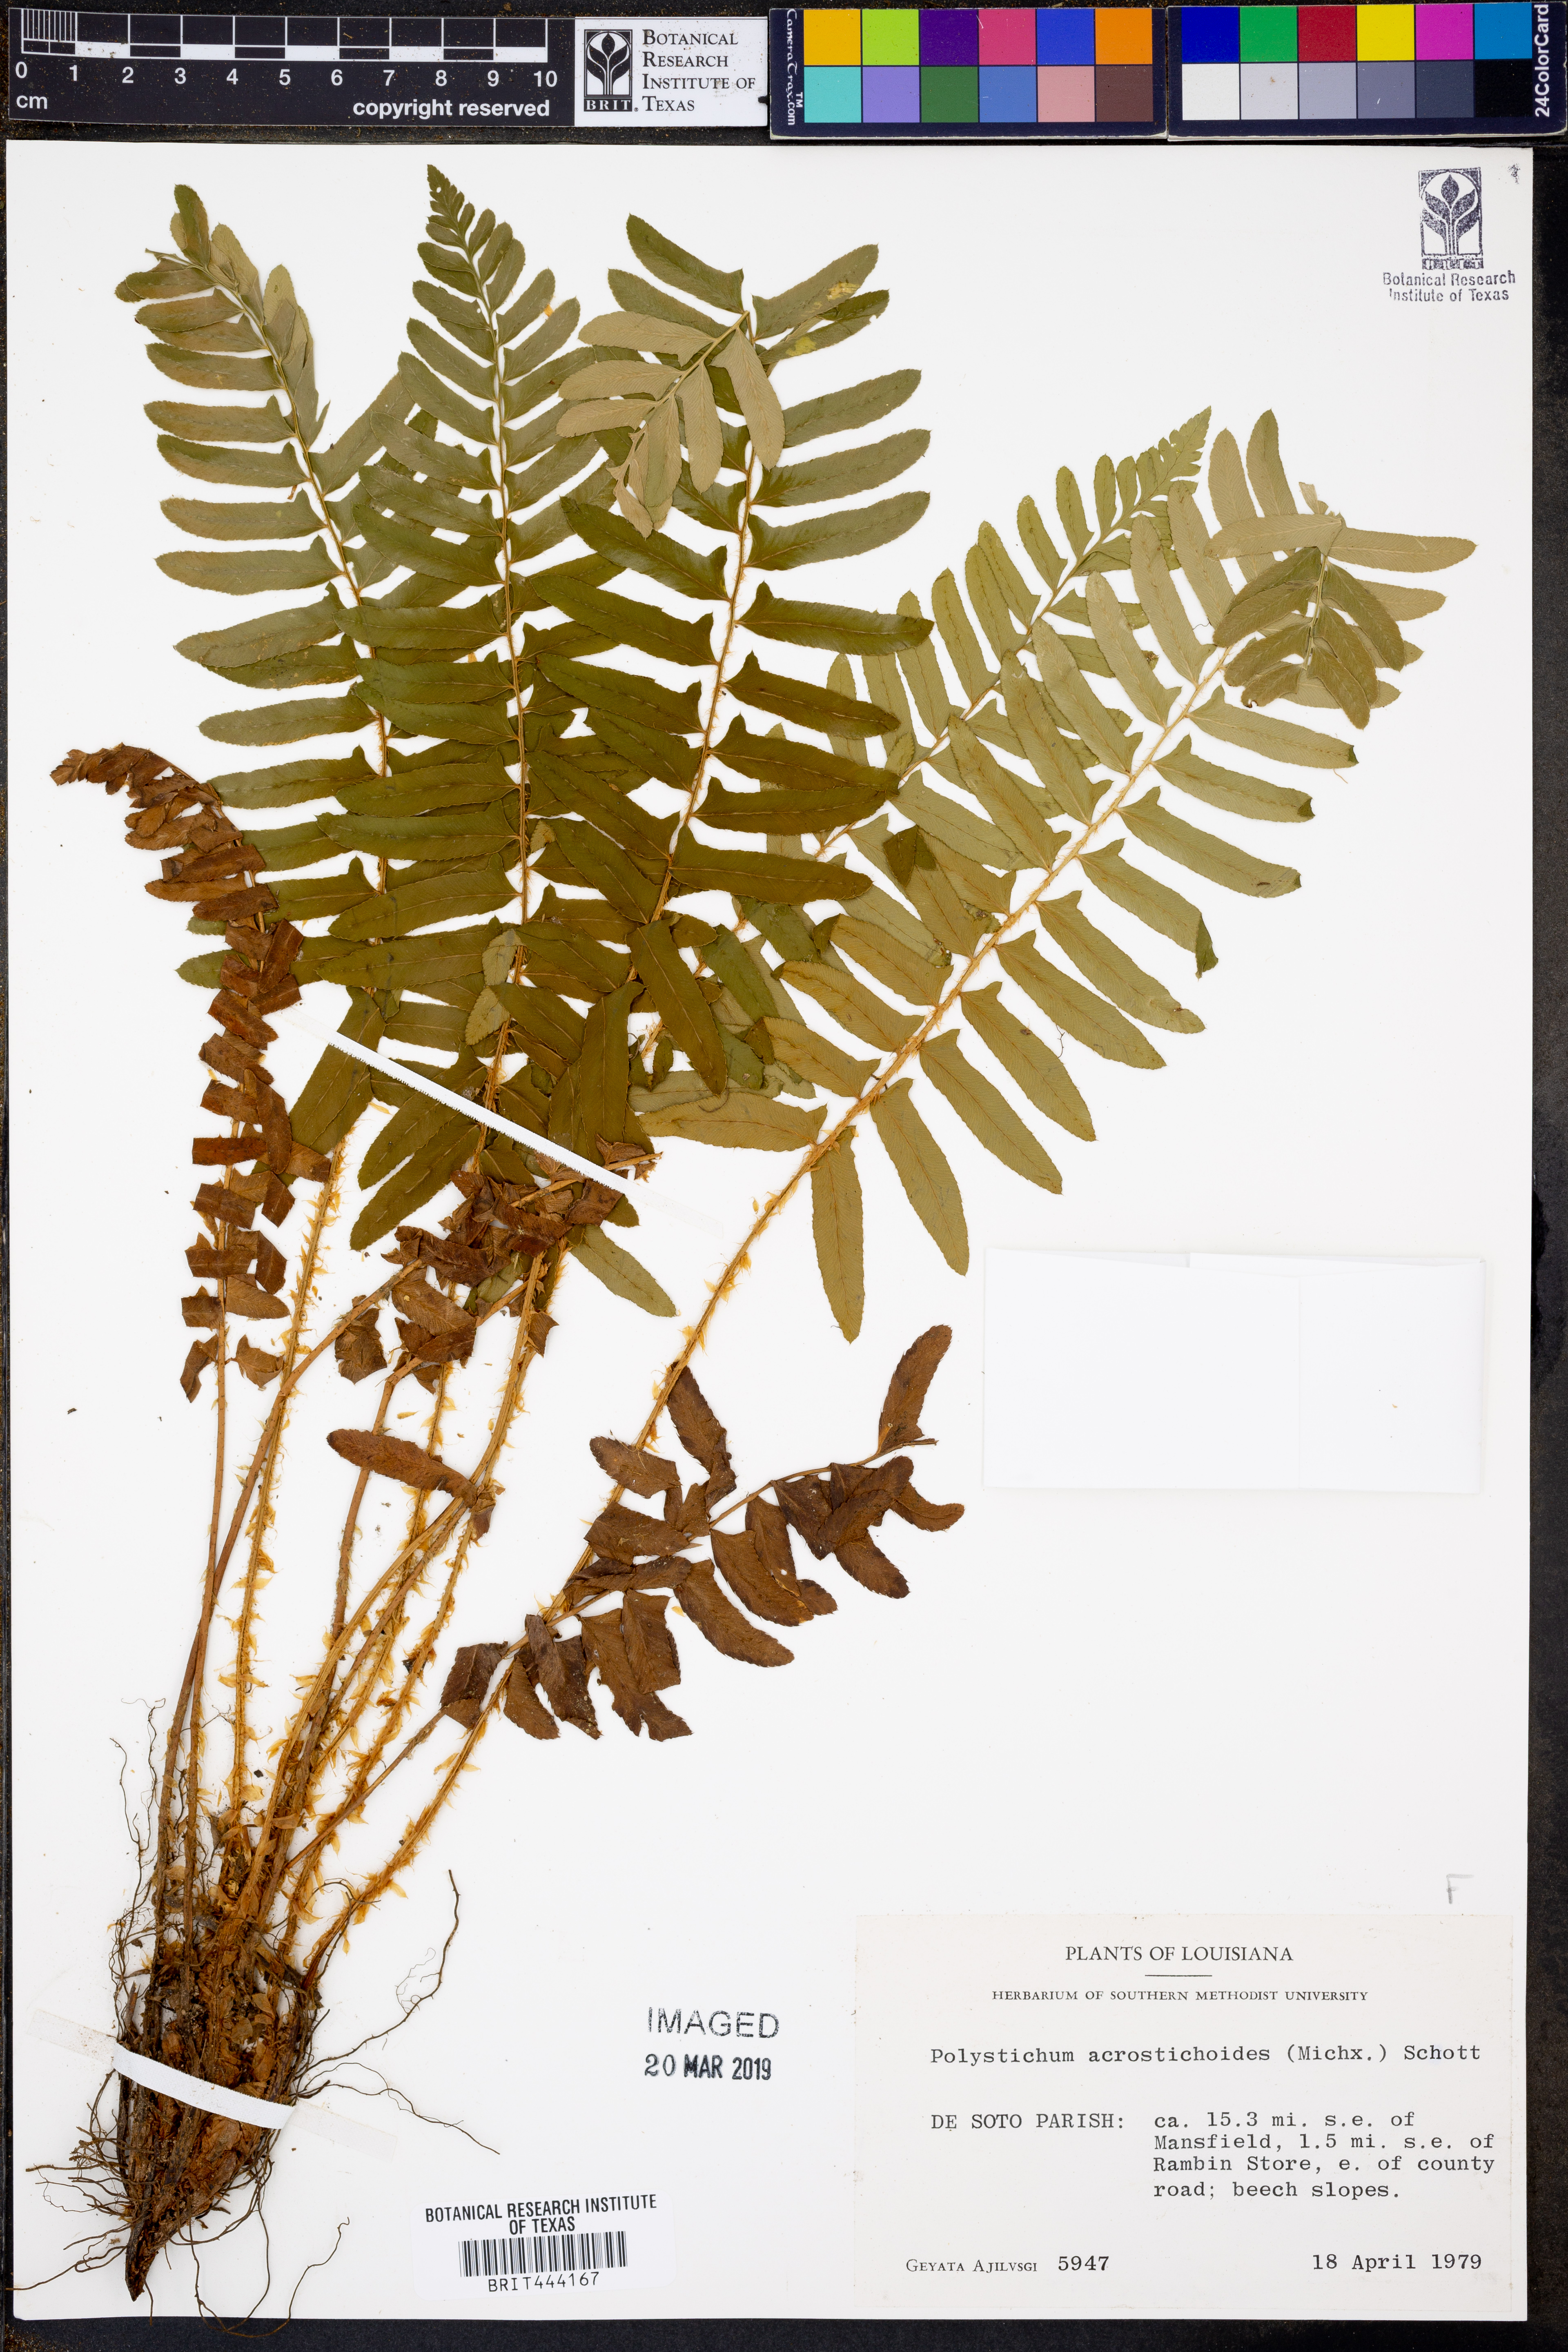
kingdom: Plantae
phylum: Tracheophyta
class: Polypodiopsida
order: Polypodiales
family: Dryopteridaceae
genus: Polystichum
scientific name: Polystichum acrostichoides
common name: Christmas fern
